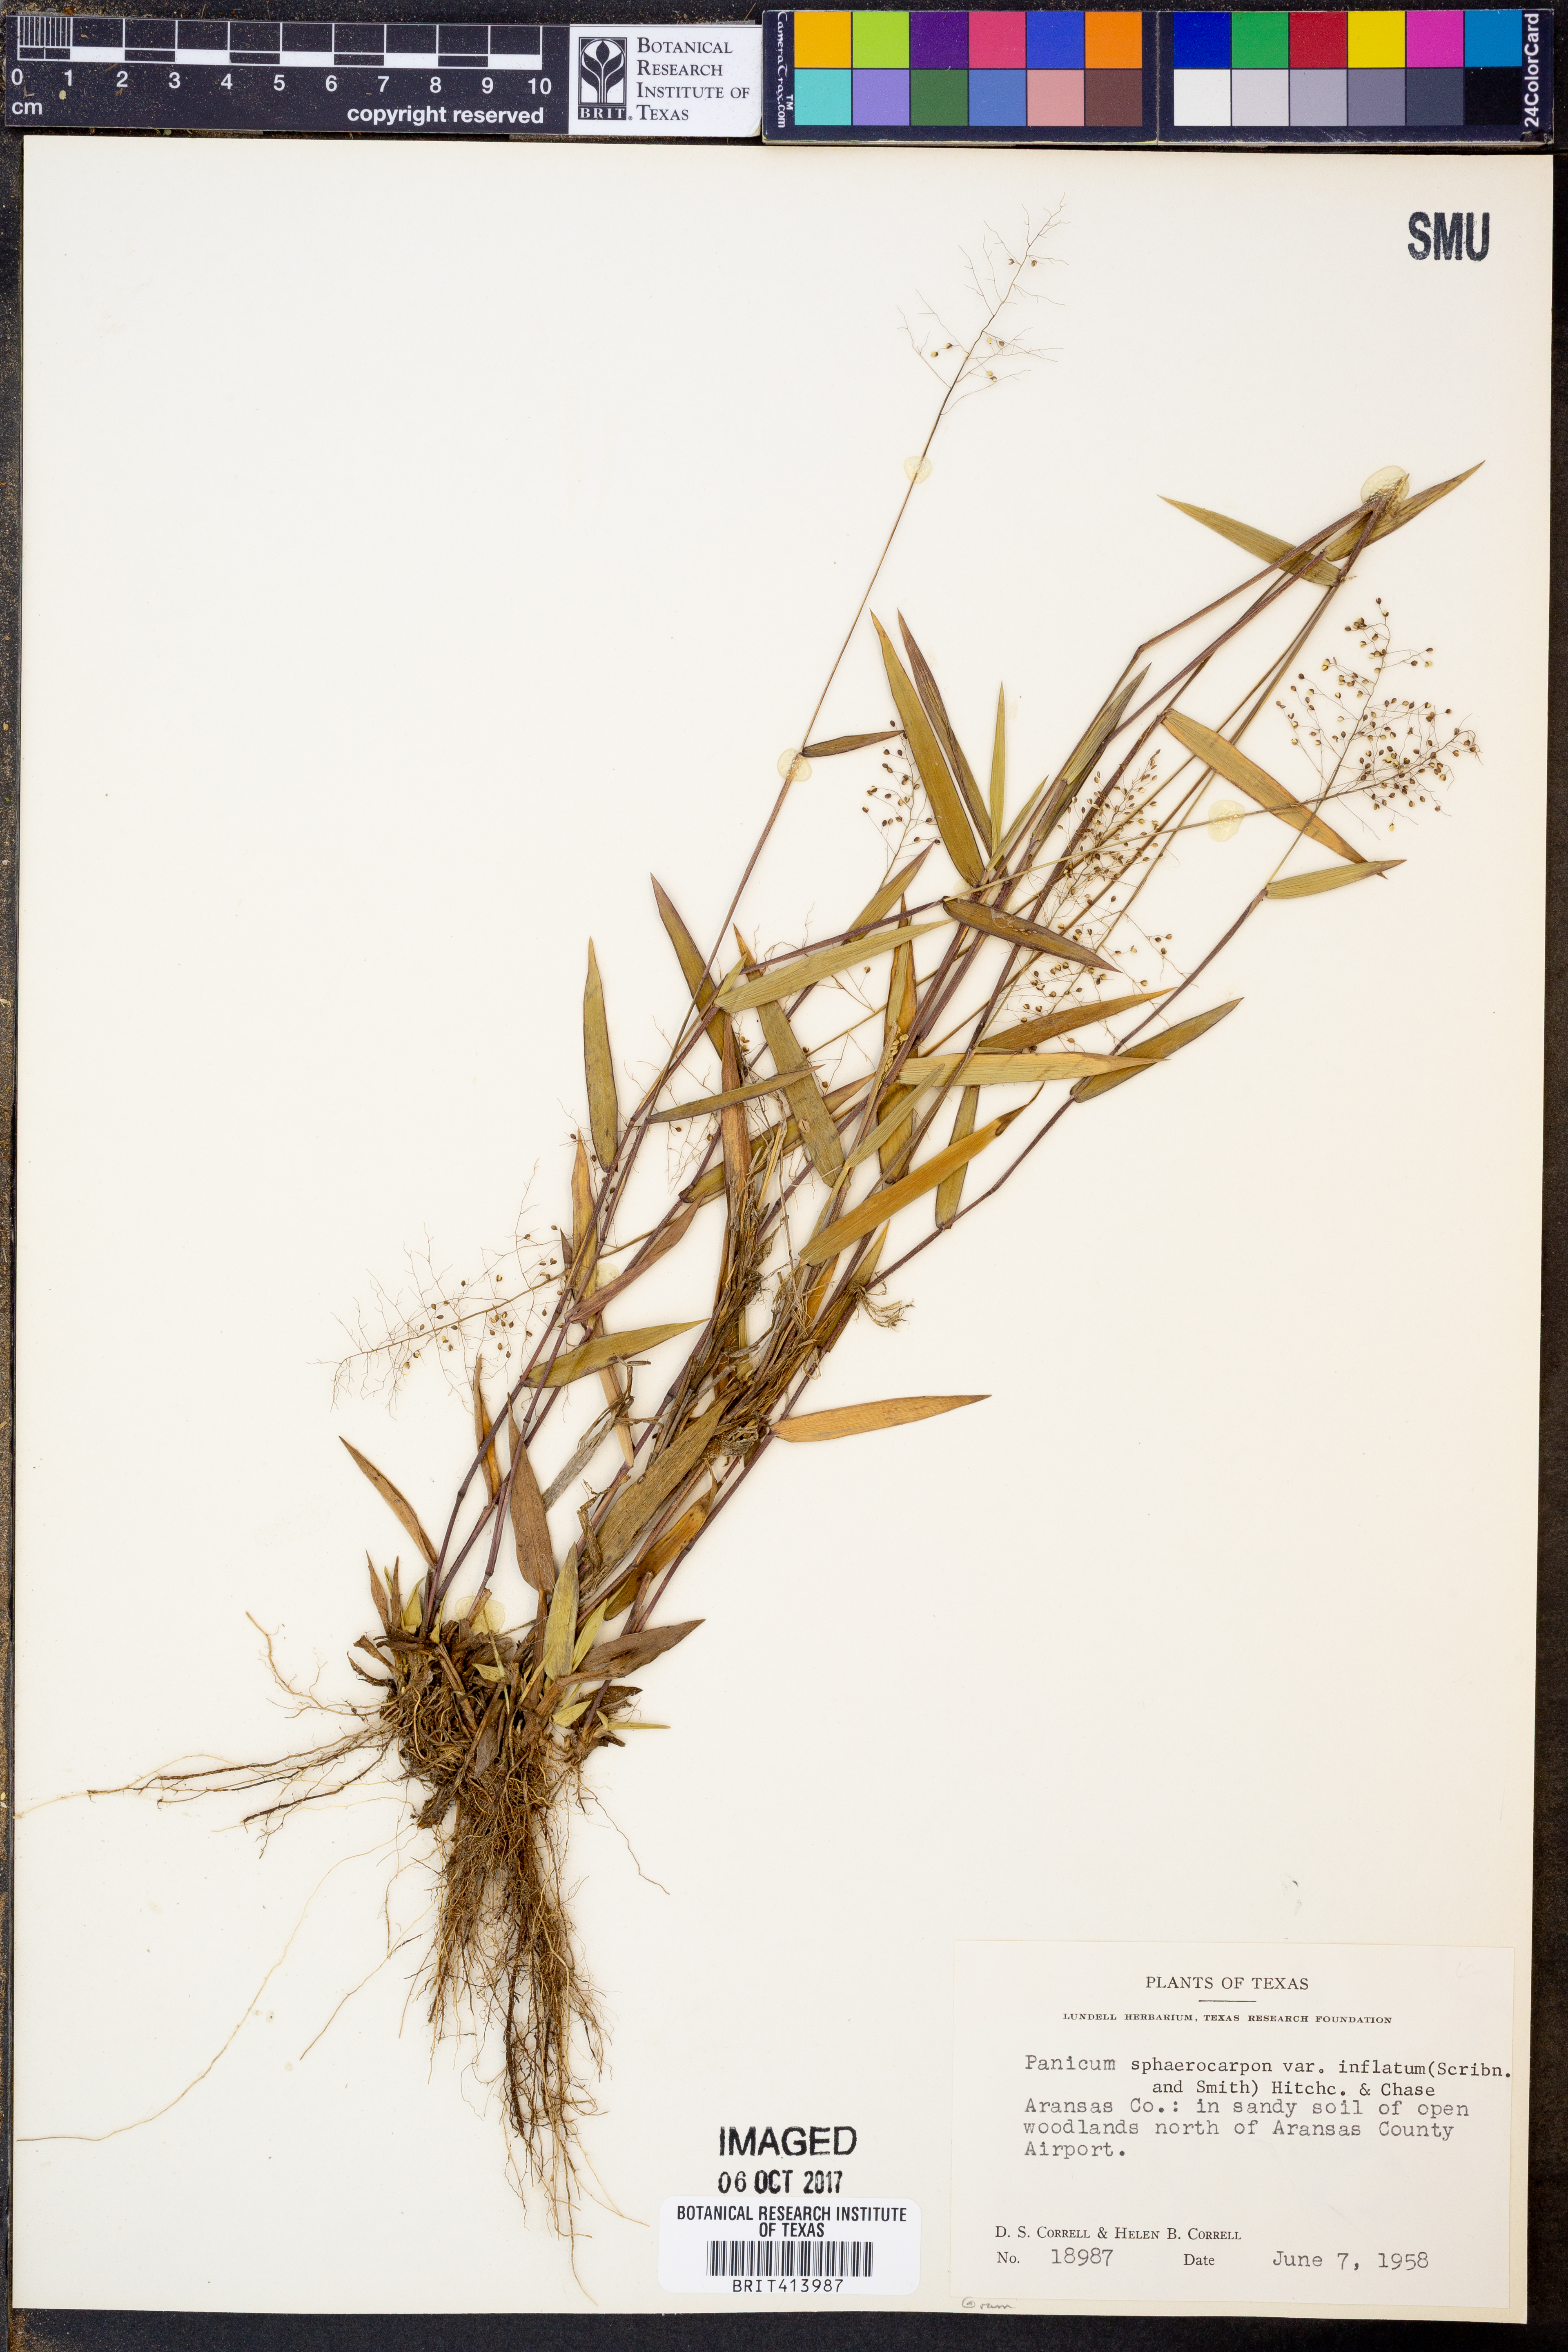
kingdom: Plantae
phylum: Tracheophyta
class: Liliopsida
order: Poales
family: Poaceae
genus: Dichanthelium
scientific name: Dichanthelium inflatum
